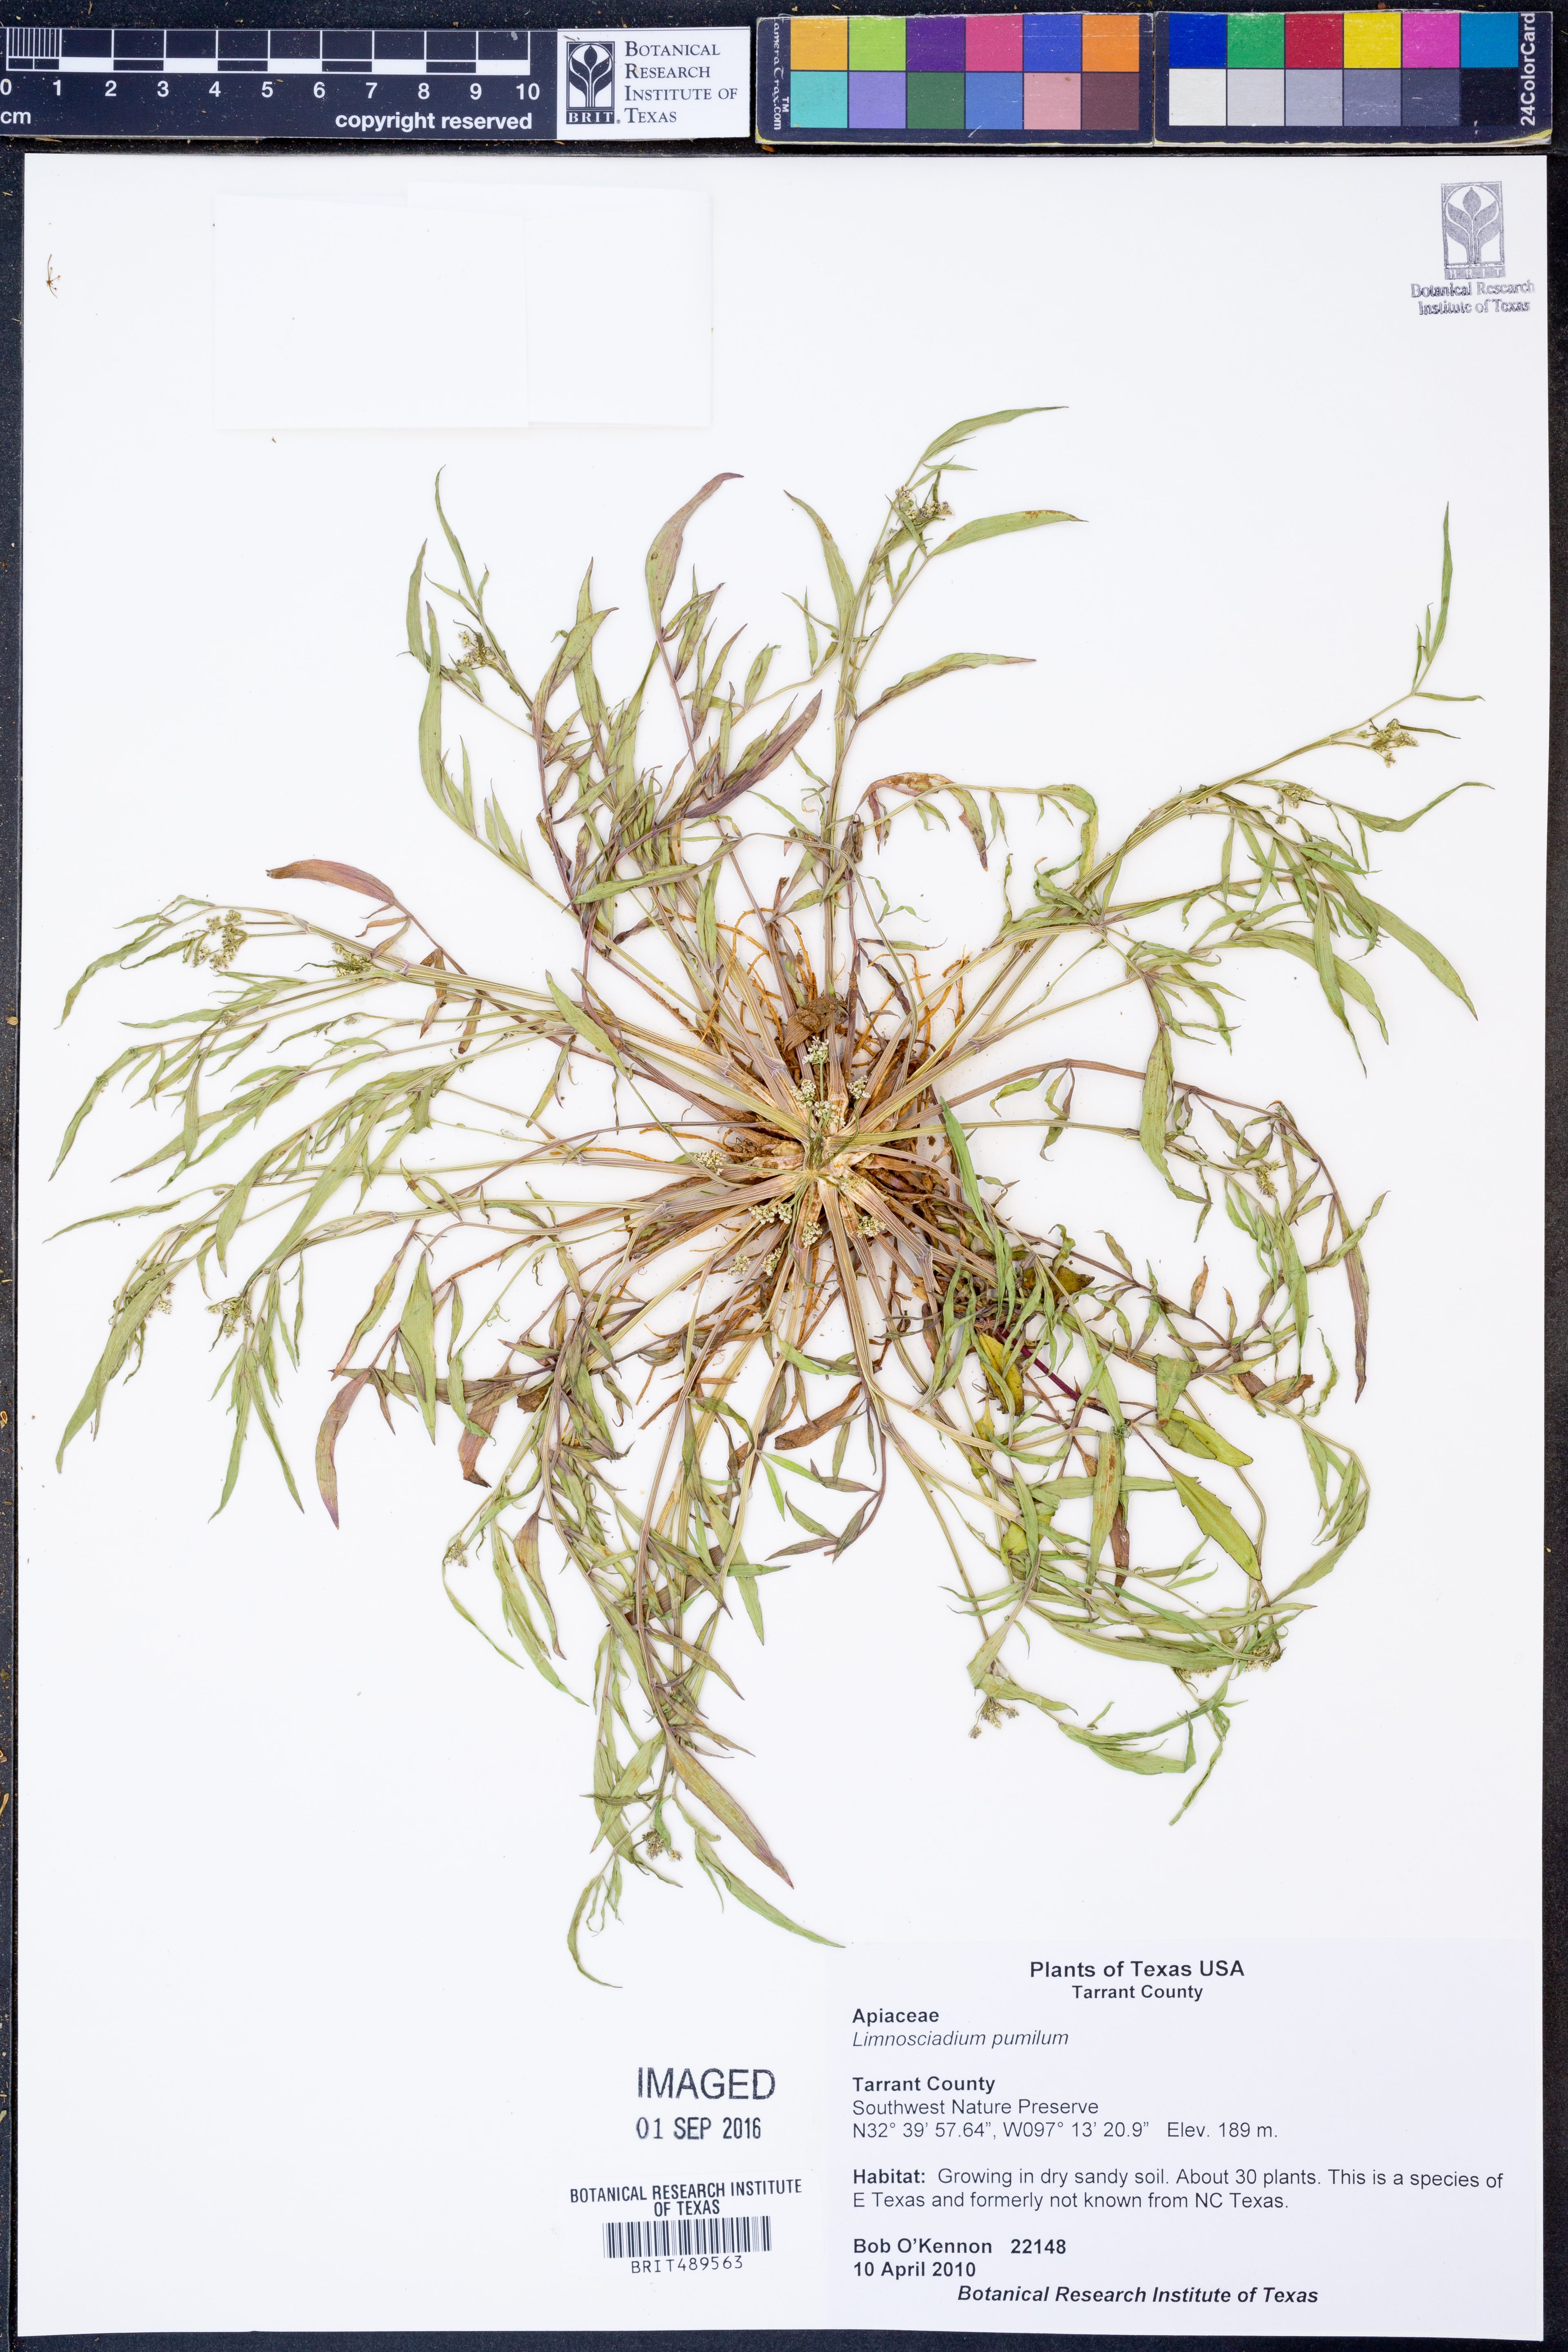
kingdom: Plantae
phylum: Tracheophyta
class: Magnoliopsida
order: Apiales
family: Apiaceae
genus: Limnosciadium
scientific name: Limnosciadium pinnatum
